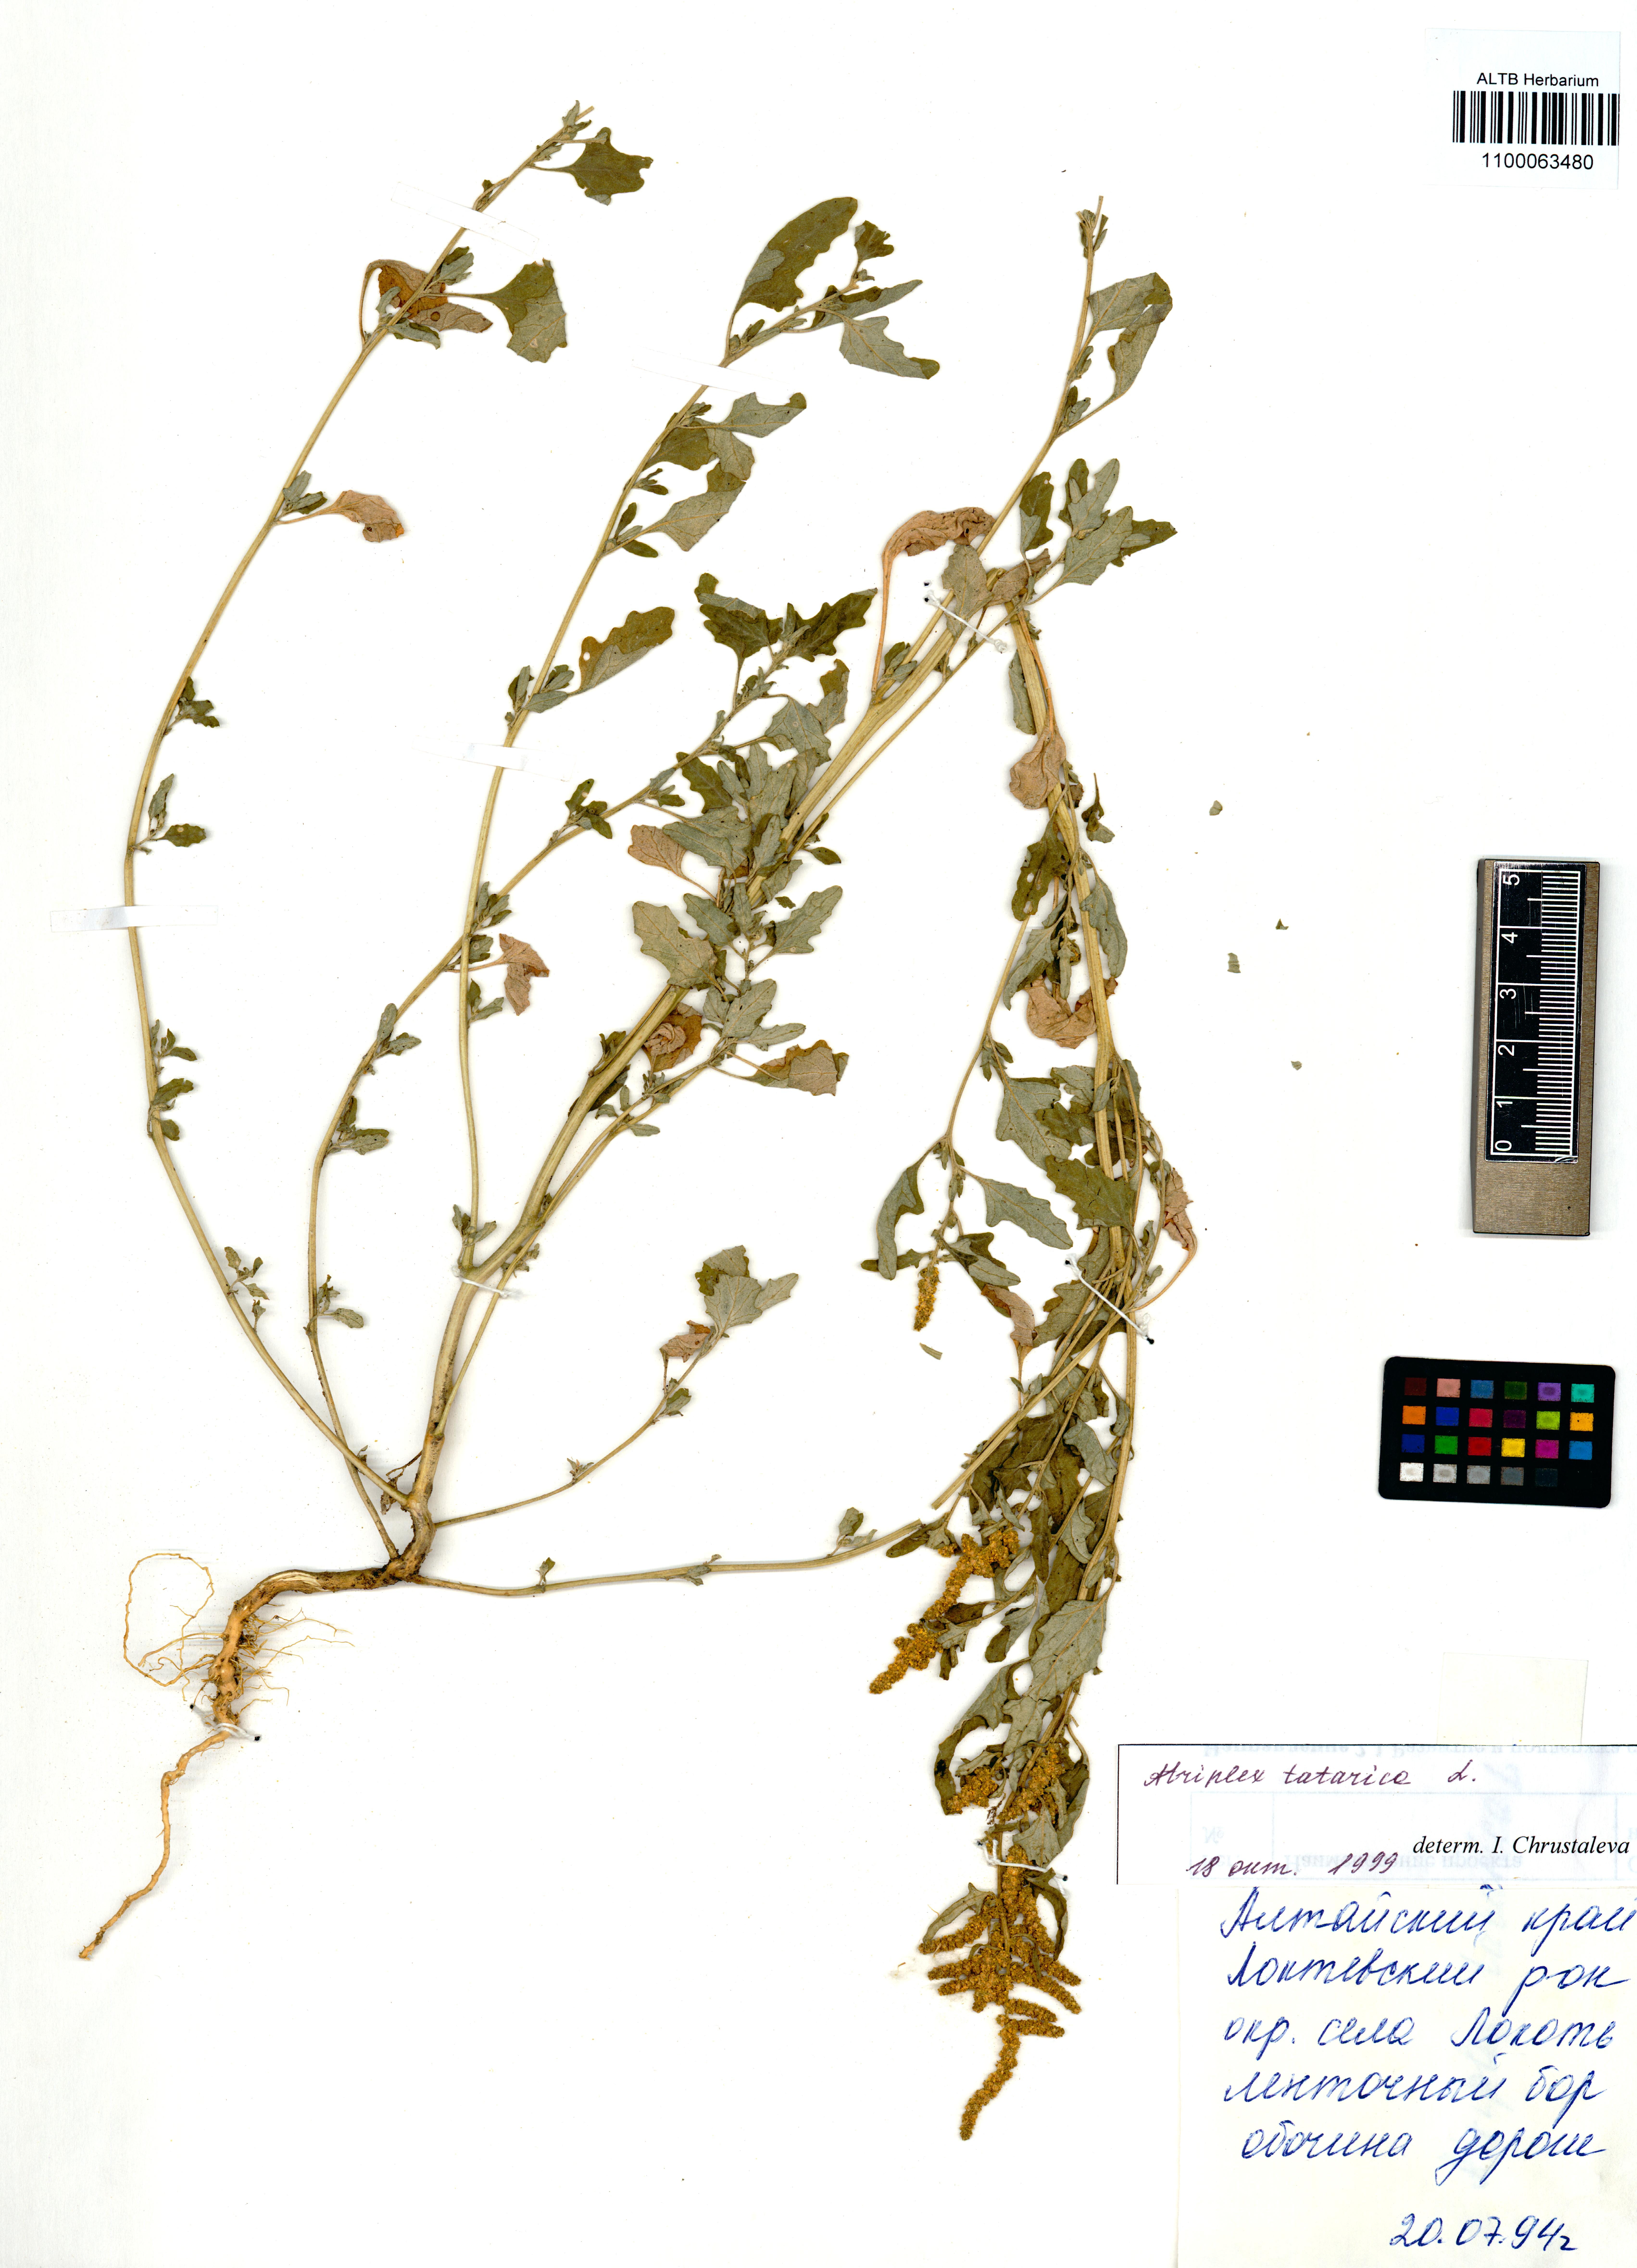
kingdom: Plantae
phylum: Tracheophyta
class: Magnoliopsida
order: Caryophyllales
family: Amaranthaceae
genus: Atriplex
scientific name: Atriplex tatarica
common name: Tatarian orache
